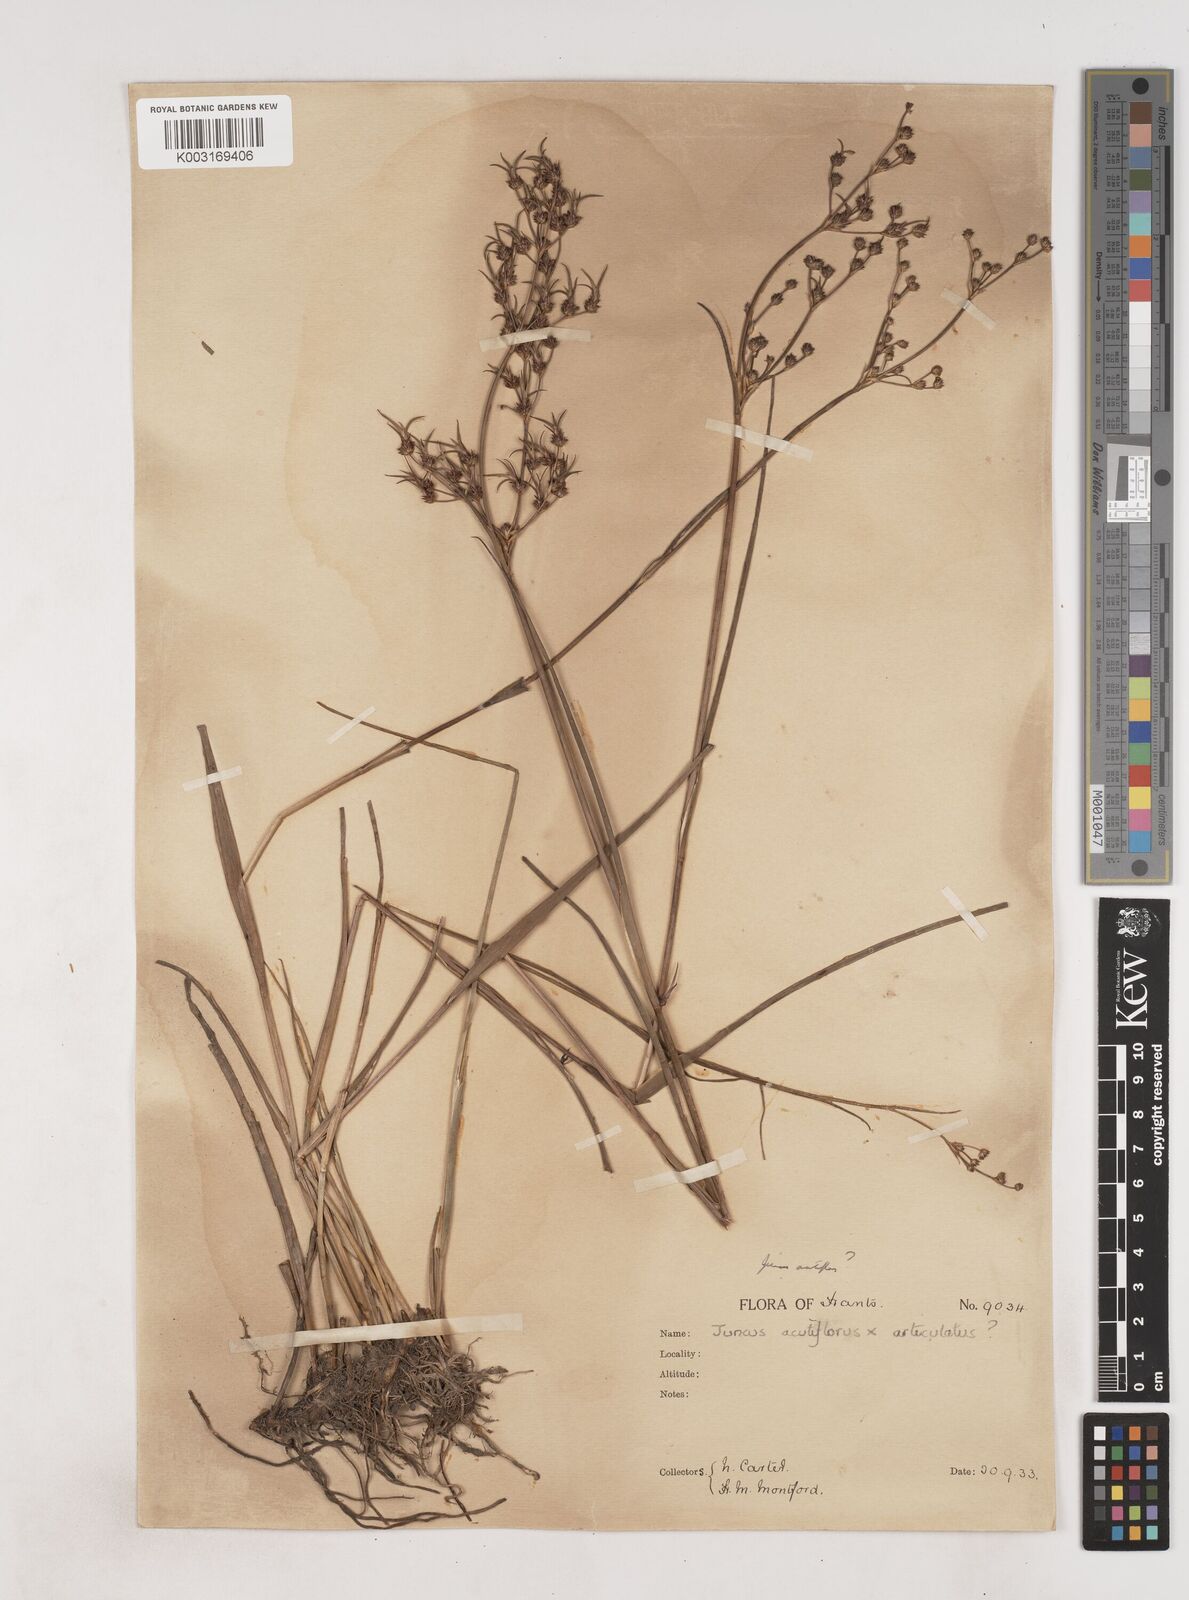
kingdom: Plantae
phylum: Tracheophyta
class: Liliopsida
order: Poales
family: Juncaceae
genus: Juncus
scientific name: Juncus
